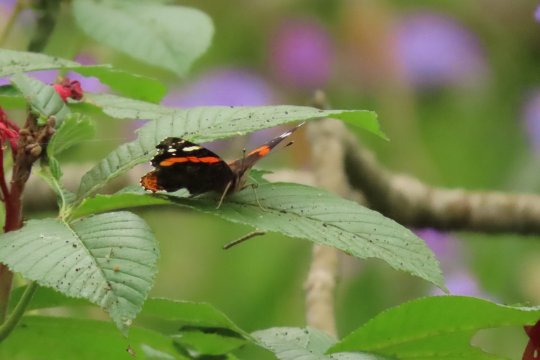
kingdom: Animalia
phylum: Arthropoda
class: Insecta
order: Lepidoptera
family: Nymphalidae
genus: Vanessa
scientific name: Vanessa atalanta
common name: Red Admiral
